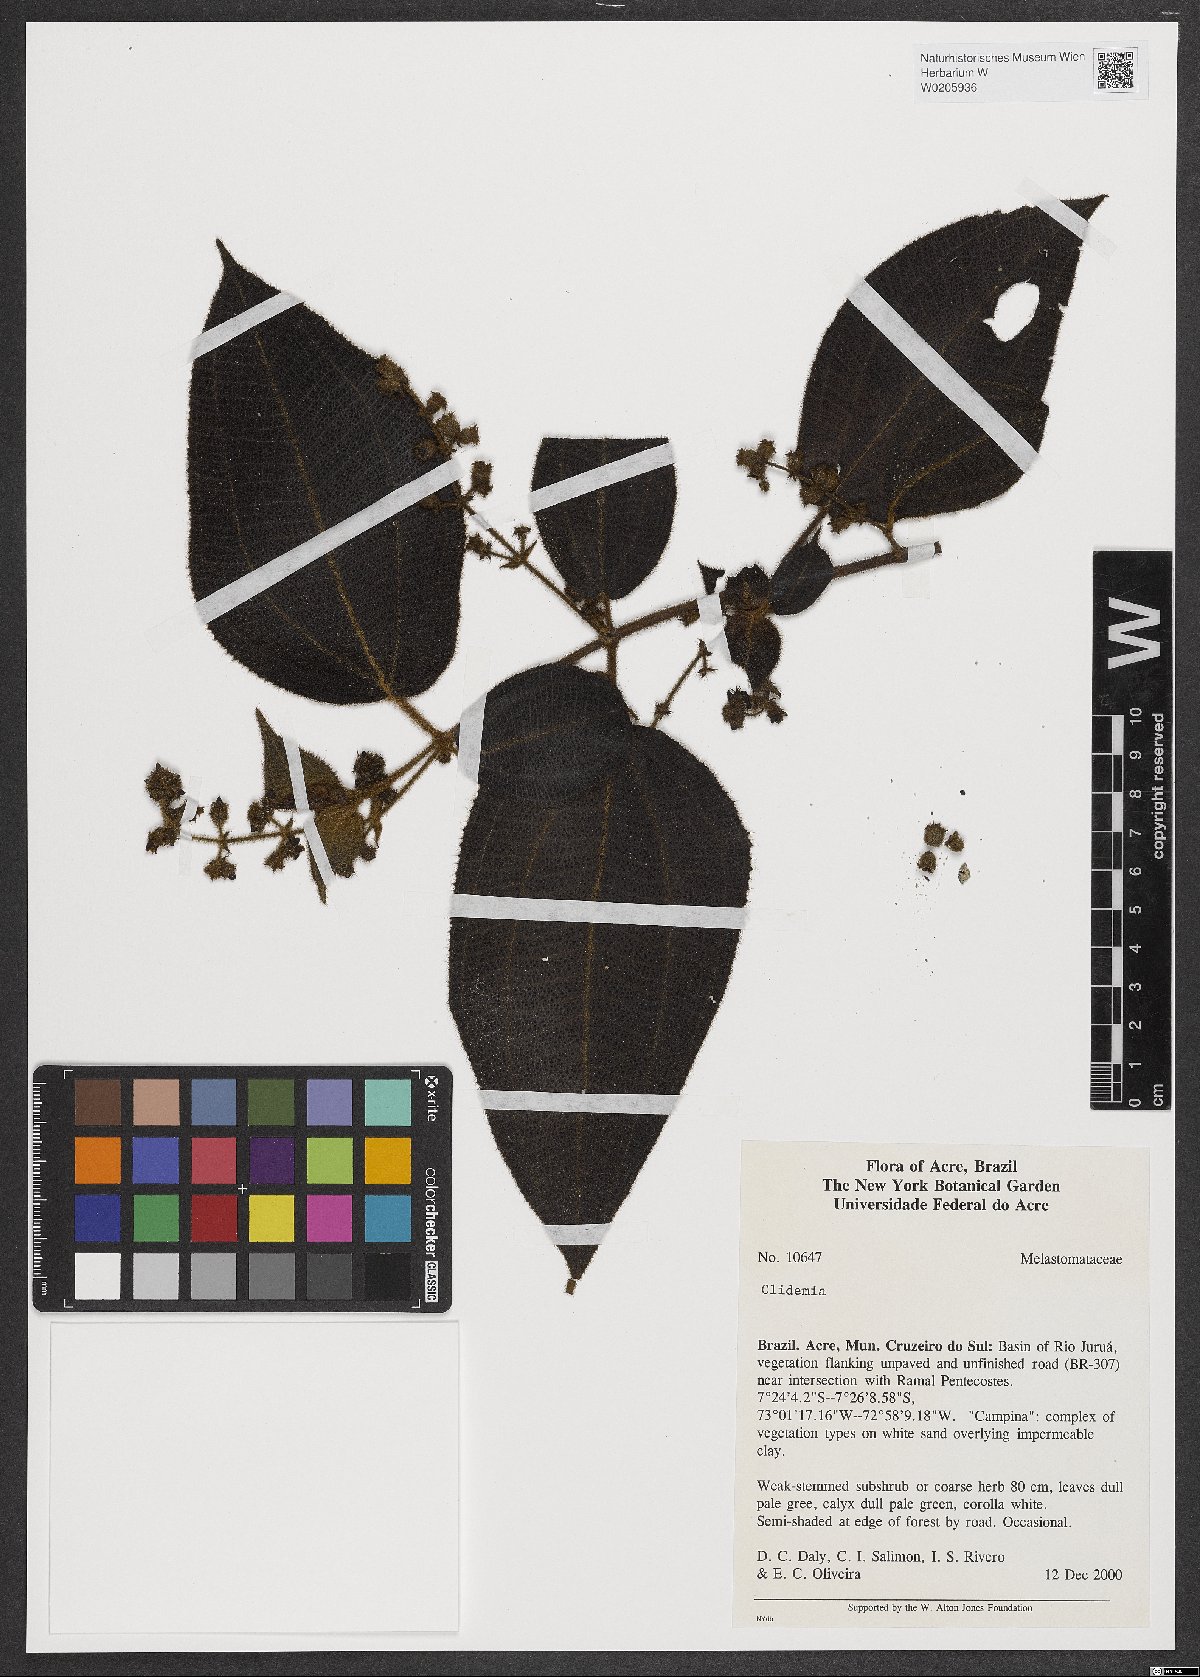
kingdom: Plantae
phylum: Tracheophyta
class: Magnoliopsida
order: Myrtales
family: Melastomataceae
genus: Miconia
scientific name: Miconia
